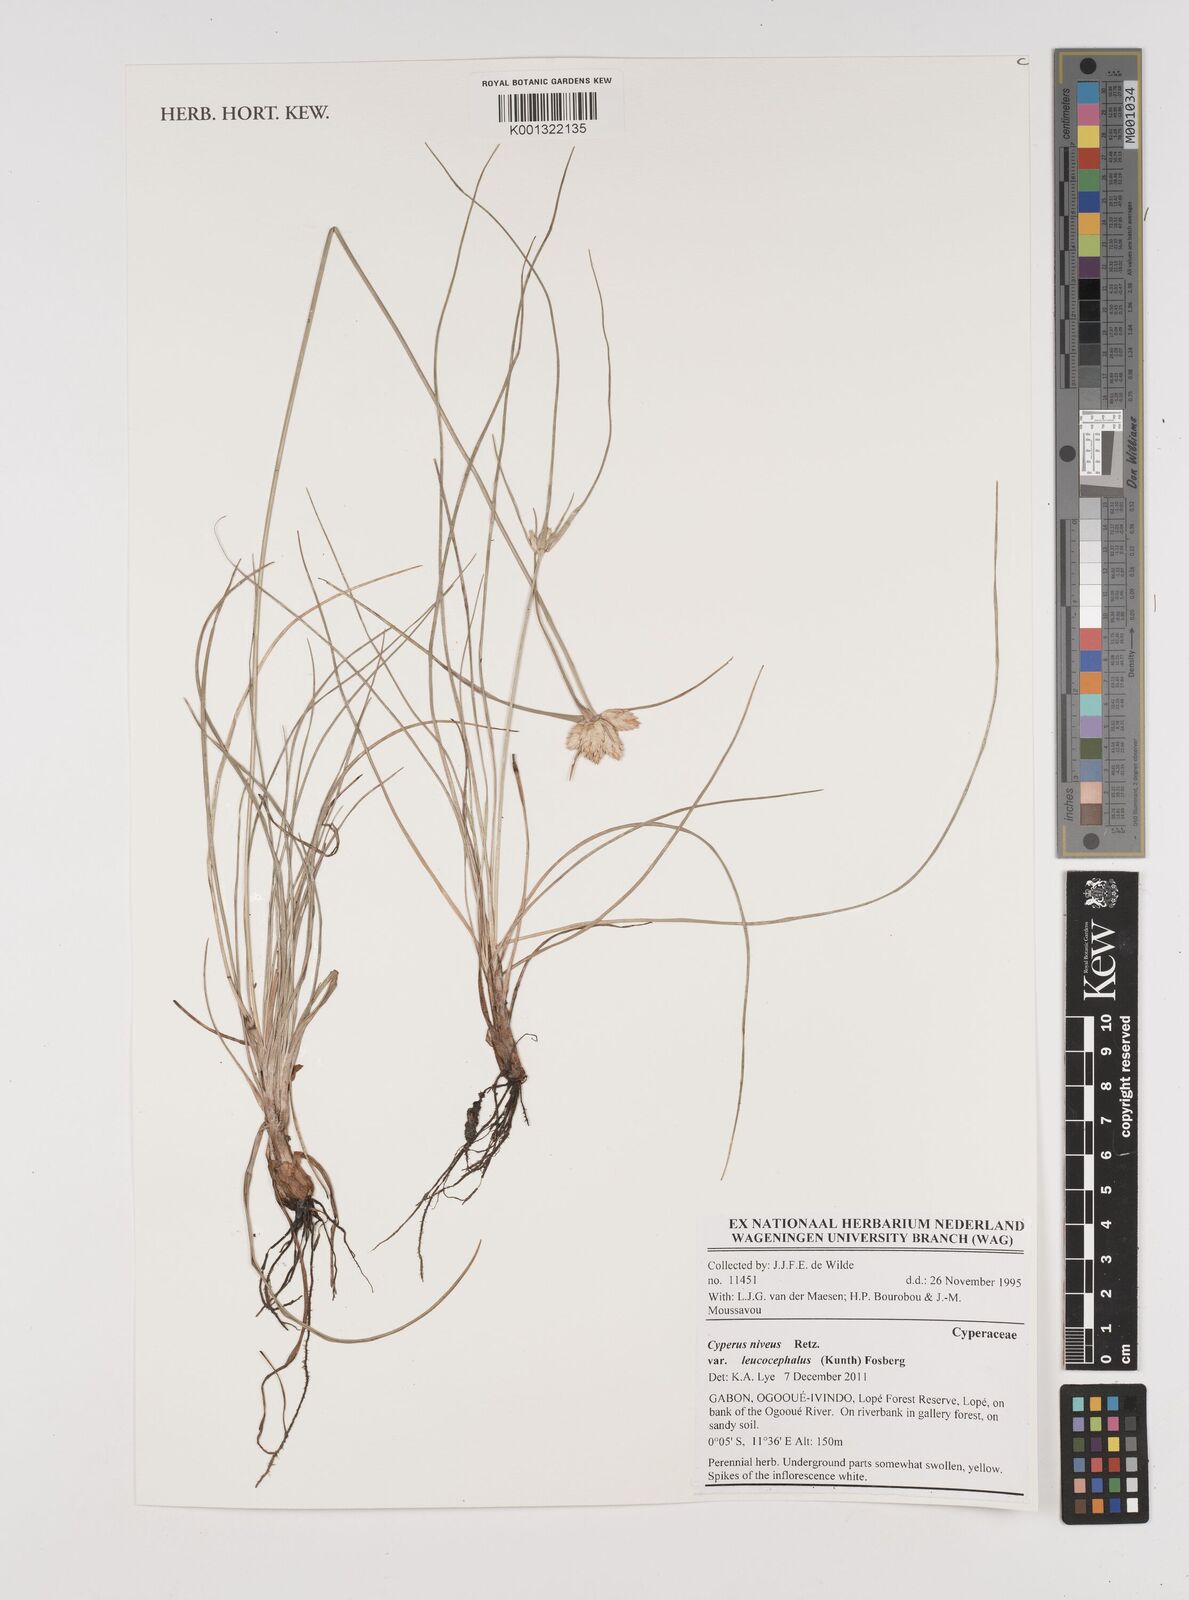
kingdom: Plantae
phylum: Tracheophyta
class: Liliopsida
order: Poales
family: Cyperaceae
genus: Cyperus
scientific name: Cyperus niveus
